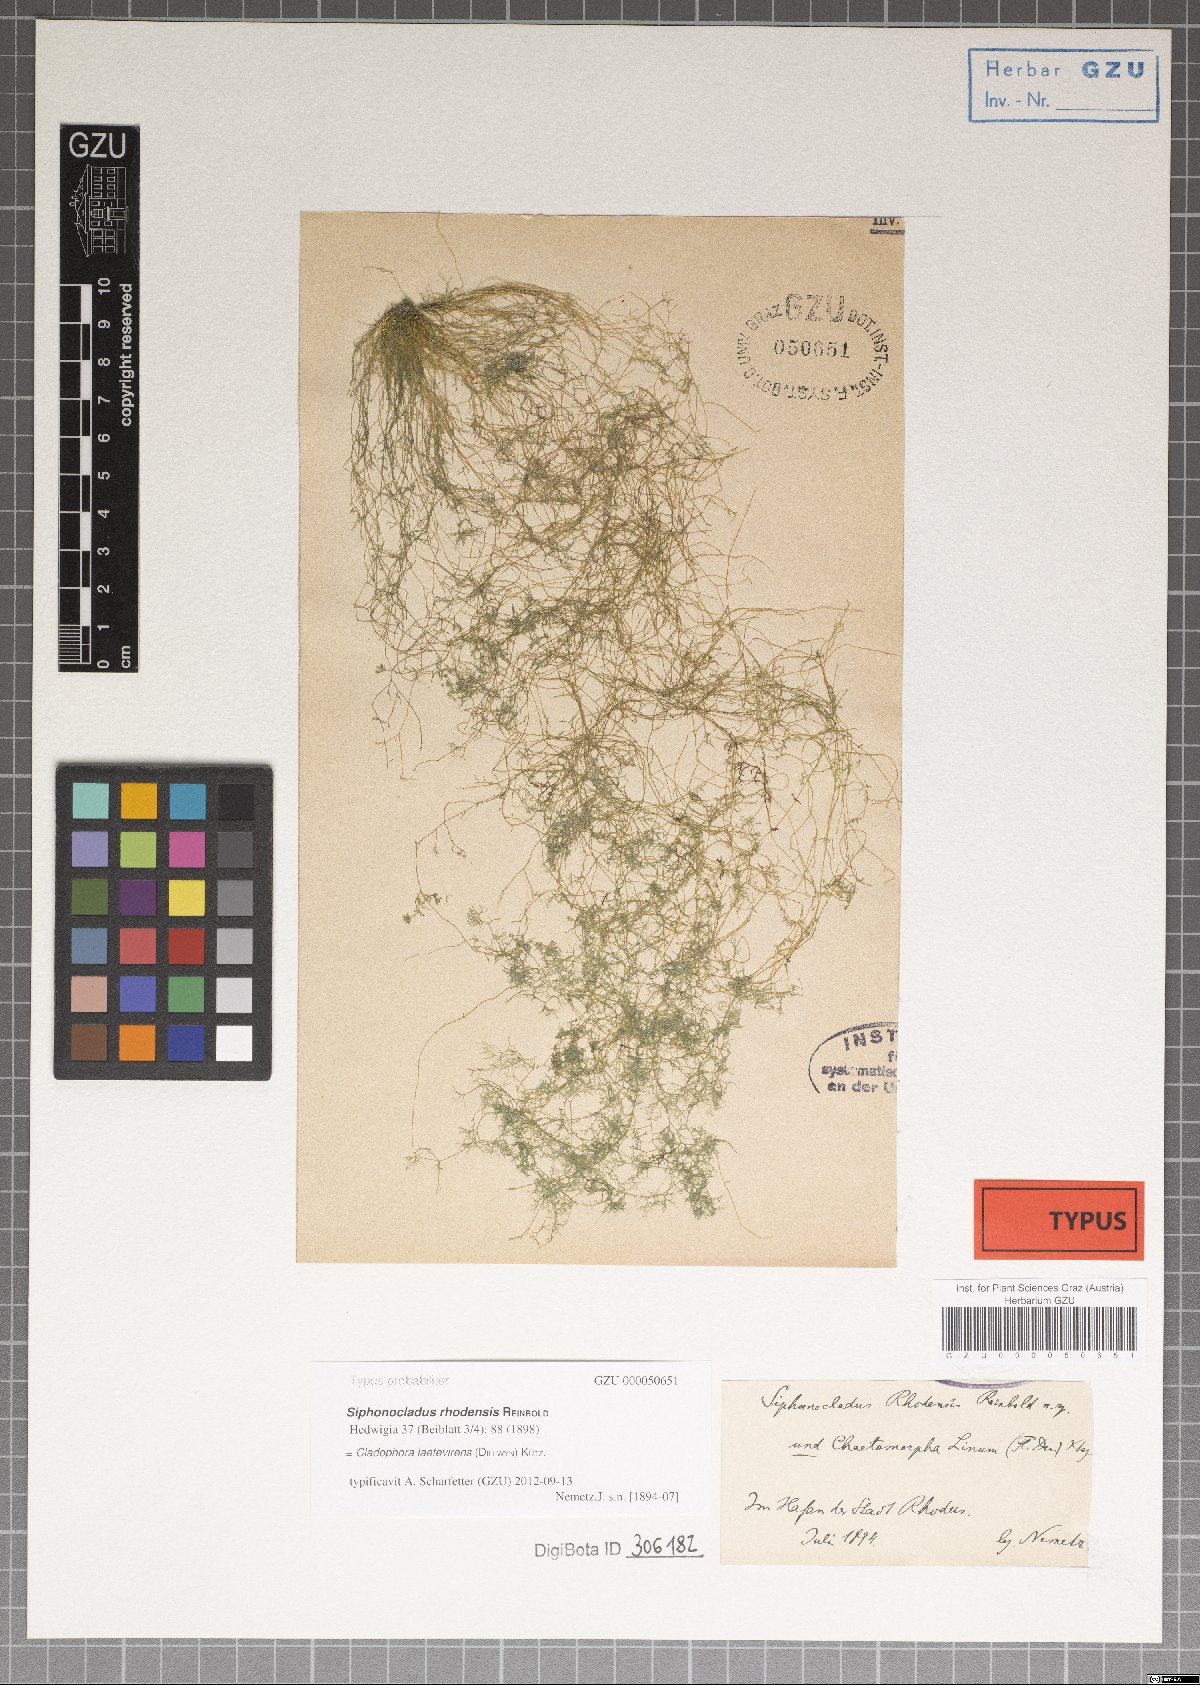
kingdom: Plantae
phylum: Chlorophyta
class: Ulvophyceae
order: Cladophorales
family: Cladophoraceae
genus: Cladophora
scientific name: Cladophora laetevirens
